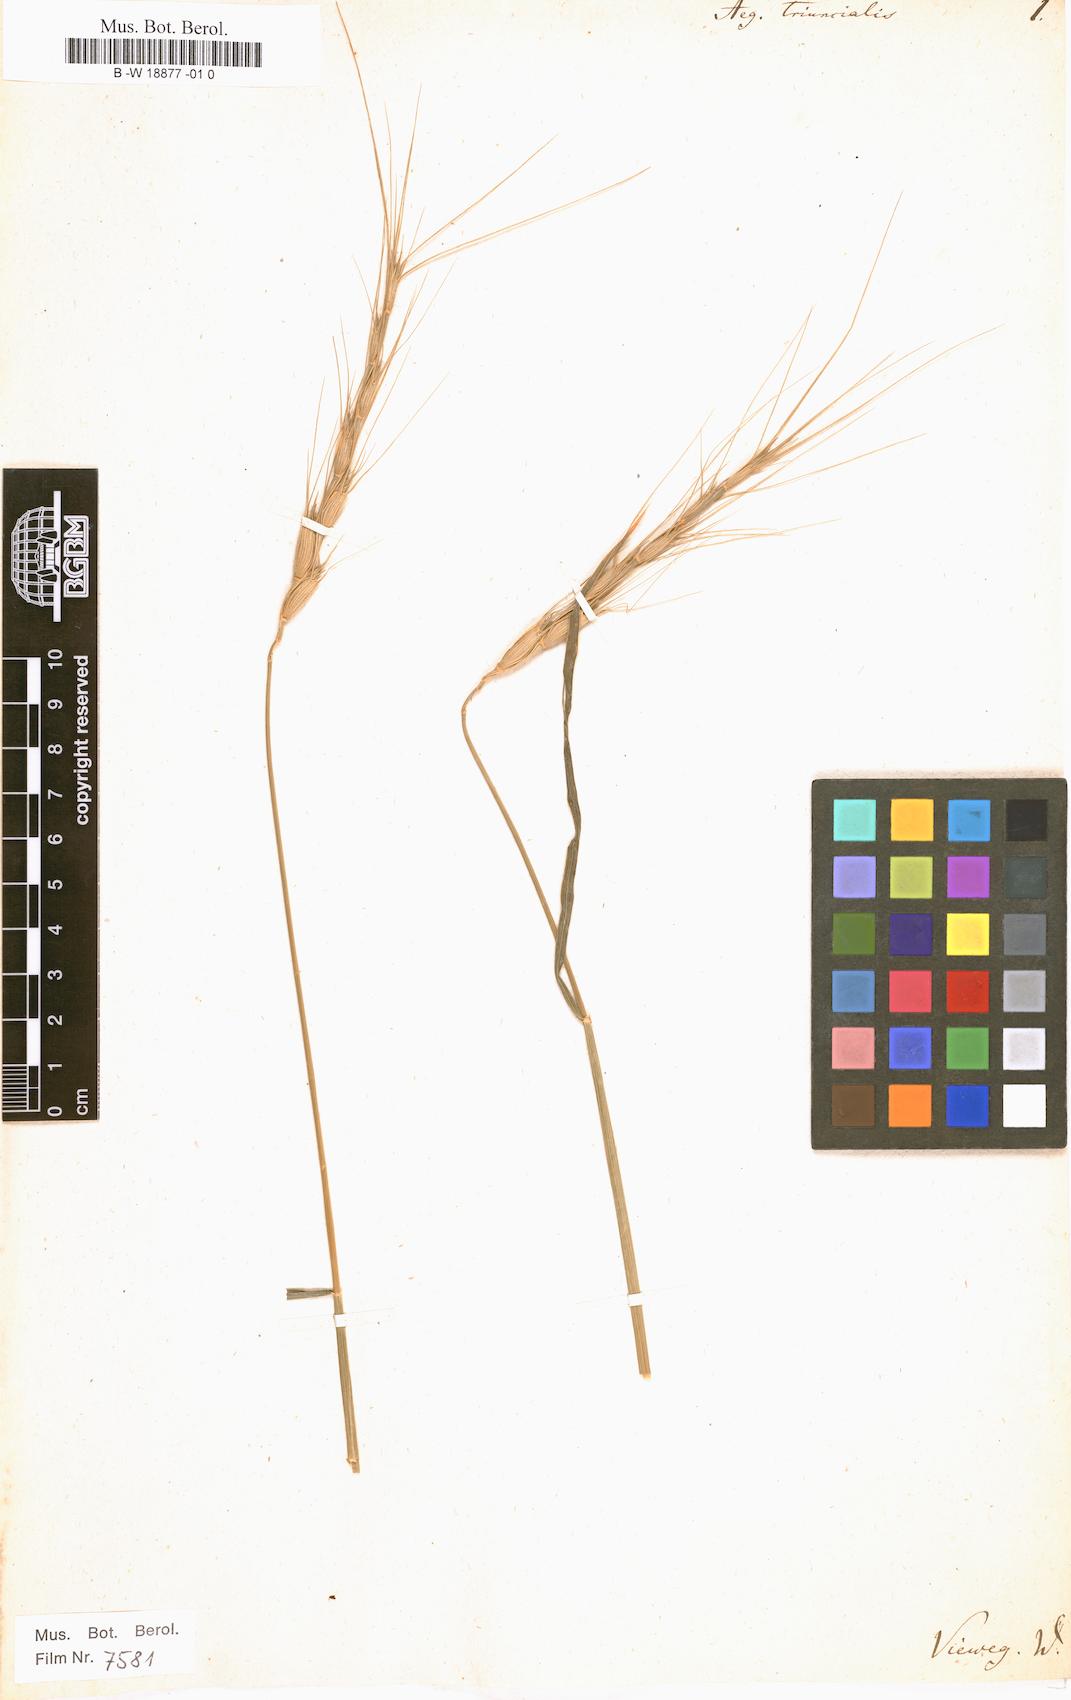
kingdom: Plantae
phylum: Tracheophyta
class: Liliopsida
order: Poales
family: Poaceae
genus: Aegilops
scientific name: Aegilops triuncialis
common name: Barb goat grass
